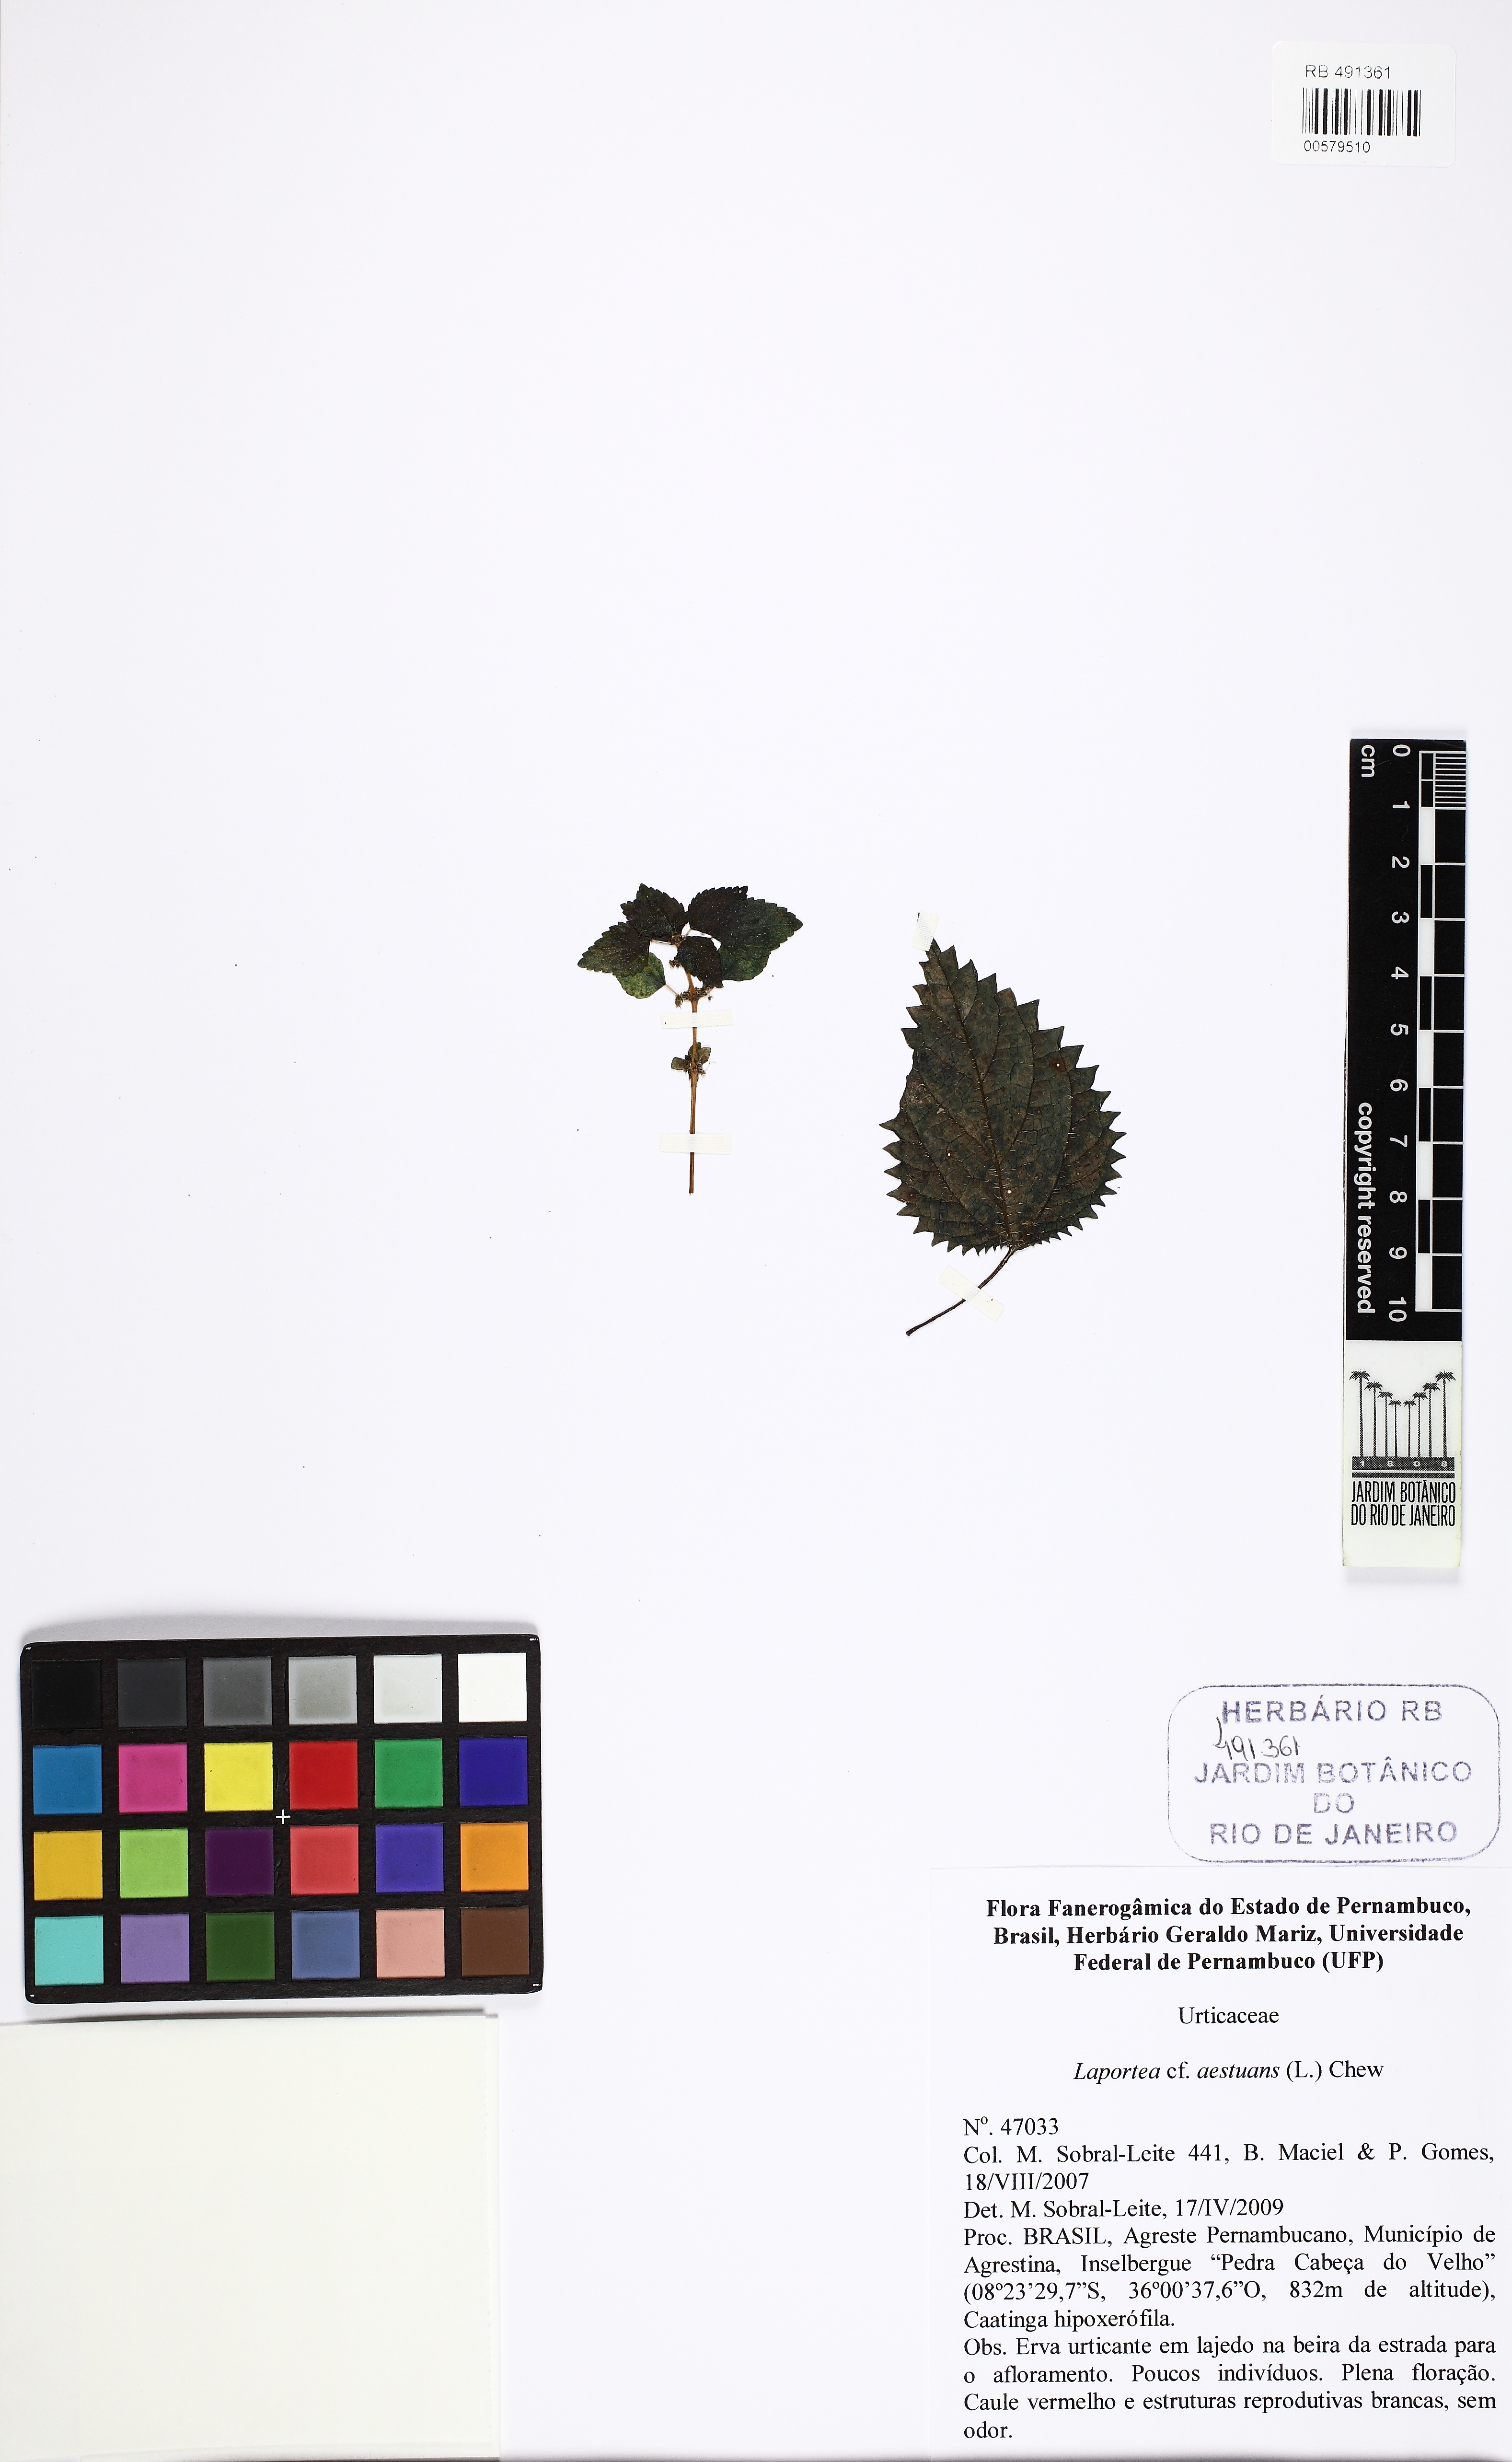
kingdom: Plantae
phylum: Tracheophyta
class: Magnoliopsida
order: Rosales
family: Urticaceae
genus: Laportea
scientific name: Laportea aestuans
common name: West indian woodnettle
